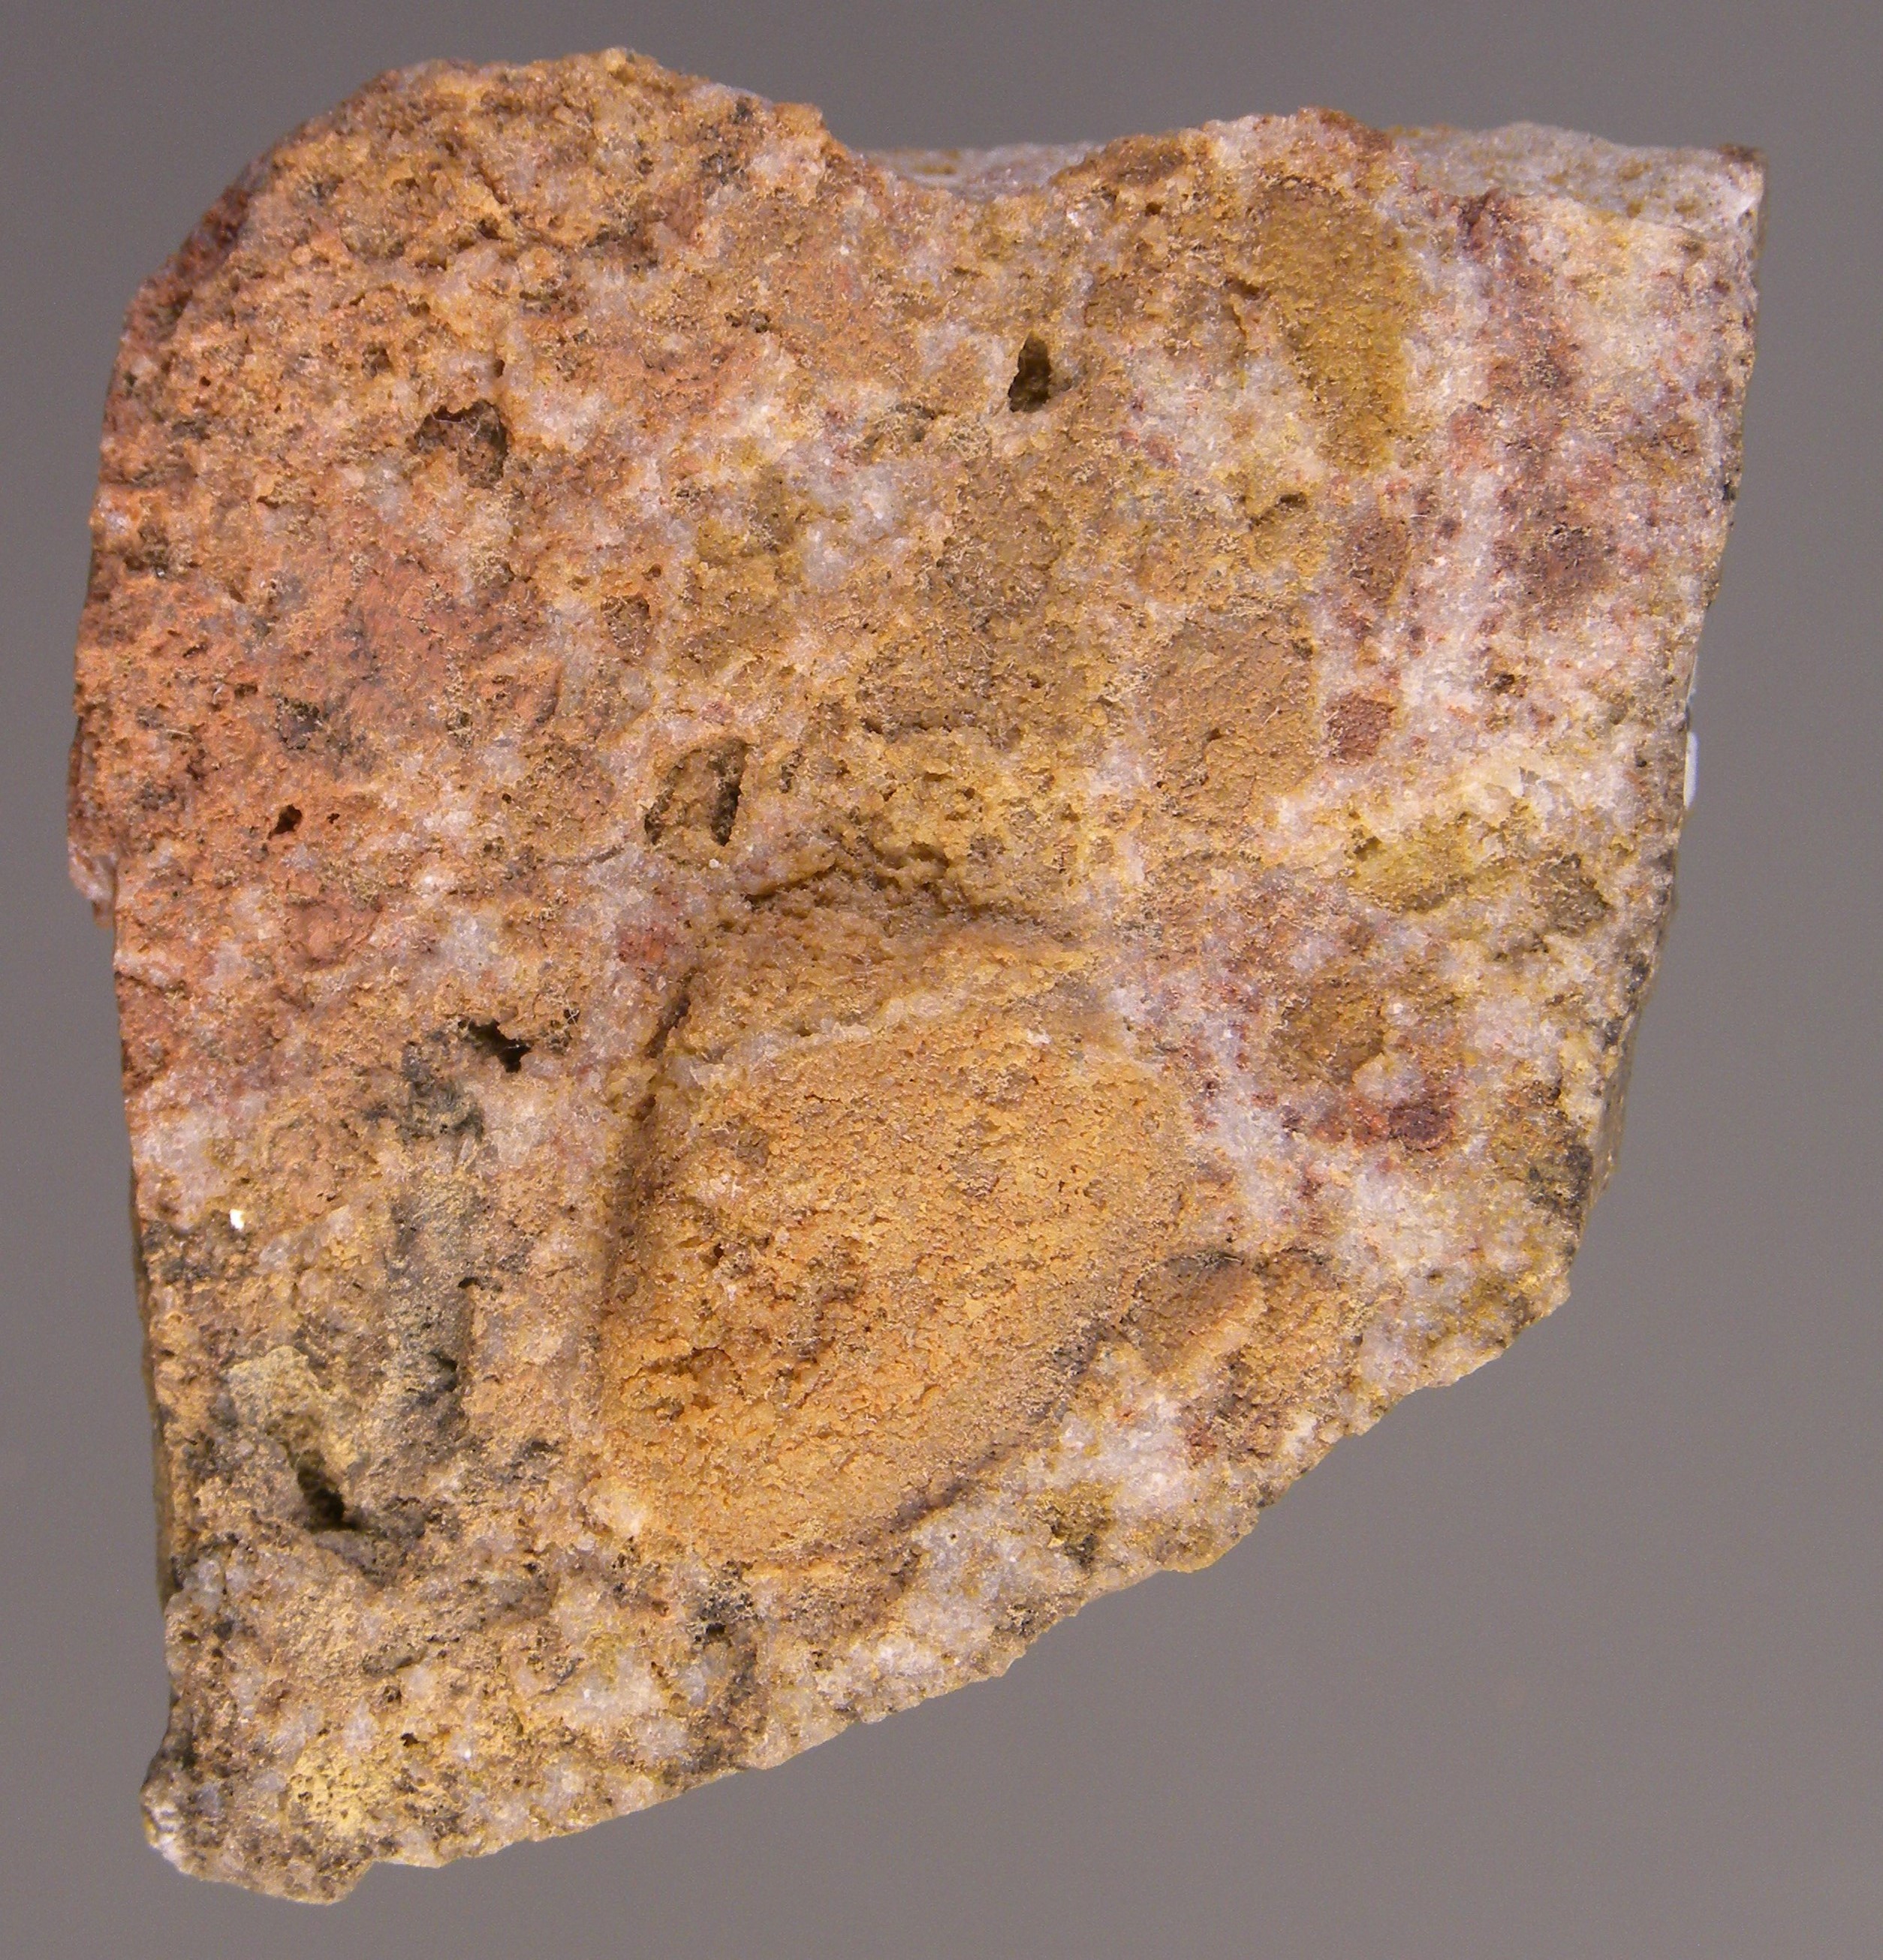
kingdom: Animalia
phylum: Mollusca
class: Bivalvia
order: Nuculanida
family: Malletiidae
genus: Palaeoneilo
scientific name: Palaeoneilo
